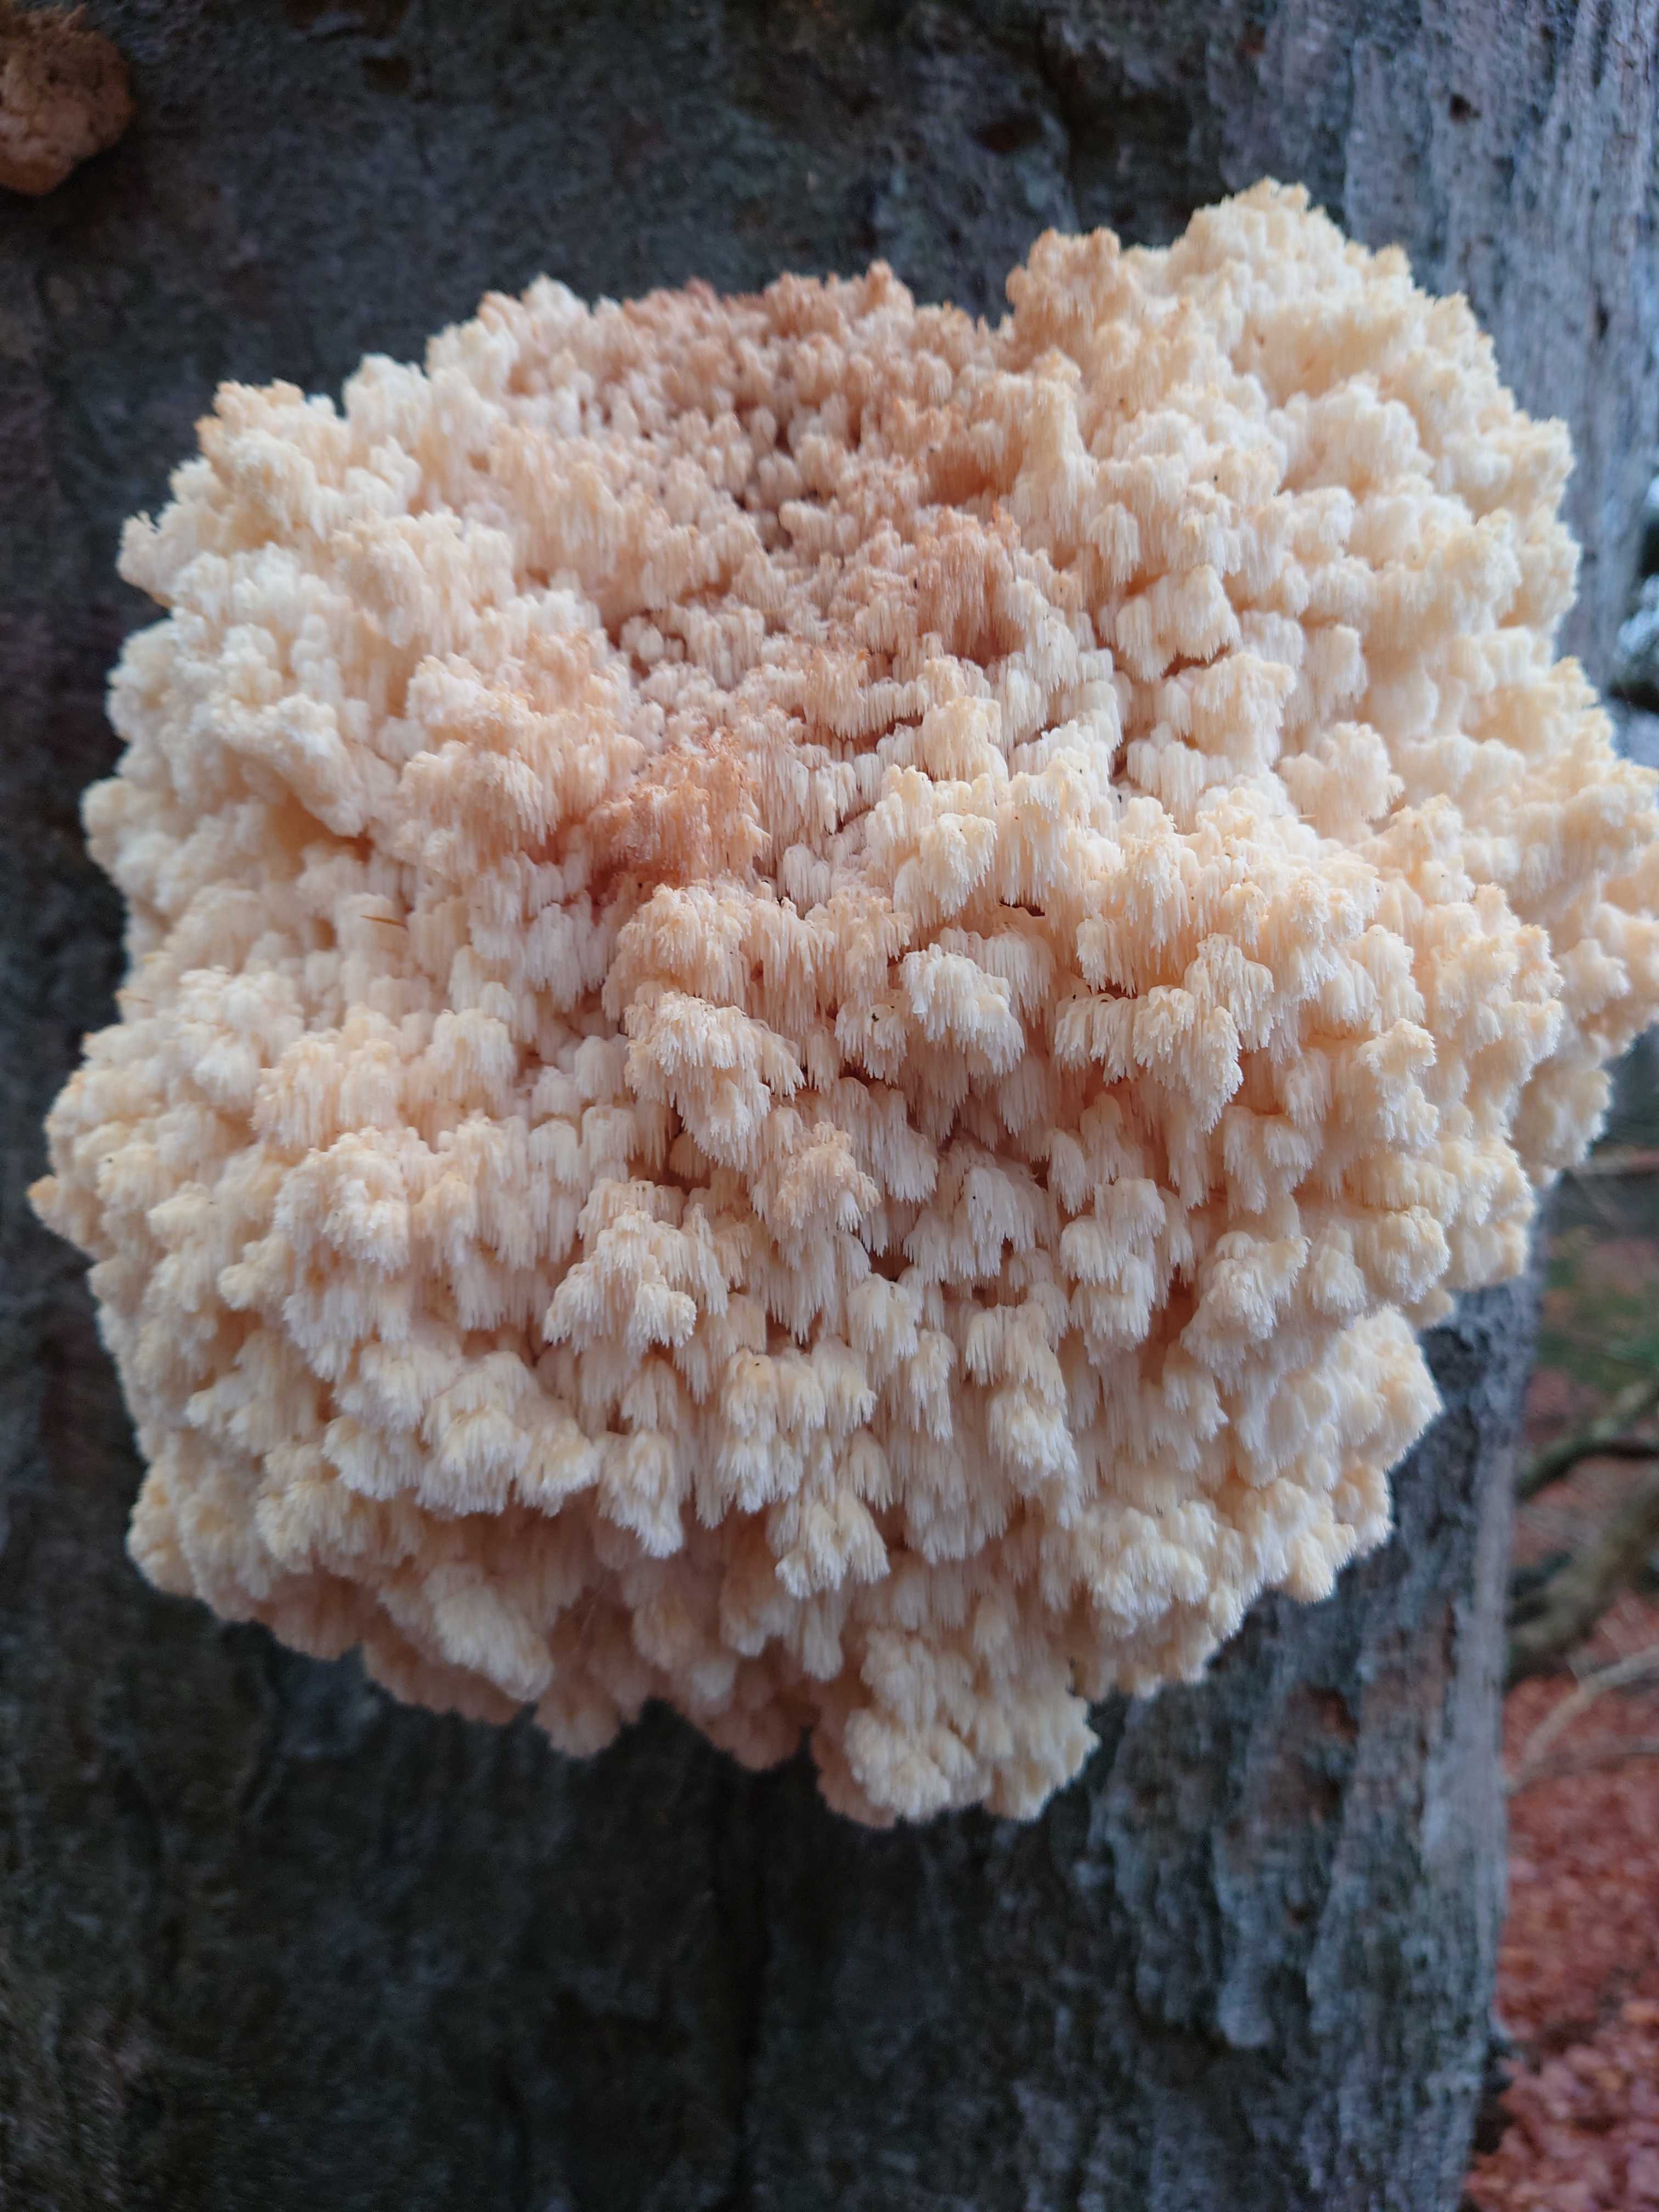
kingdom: Fungi
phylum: Basidiomycota
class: Agaricomycetes
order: Russulales
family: Hericiaceae
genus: Hericium
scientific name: Hericium coralloides
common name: koralpigsvamp
